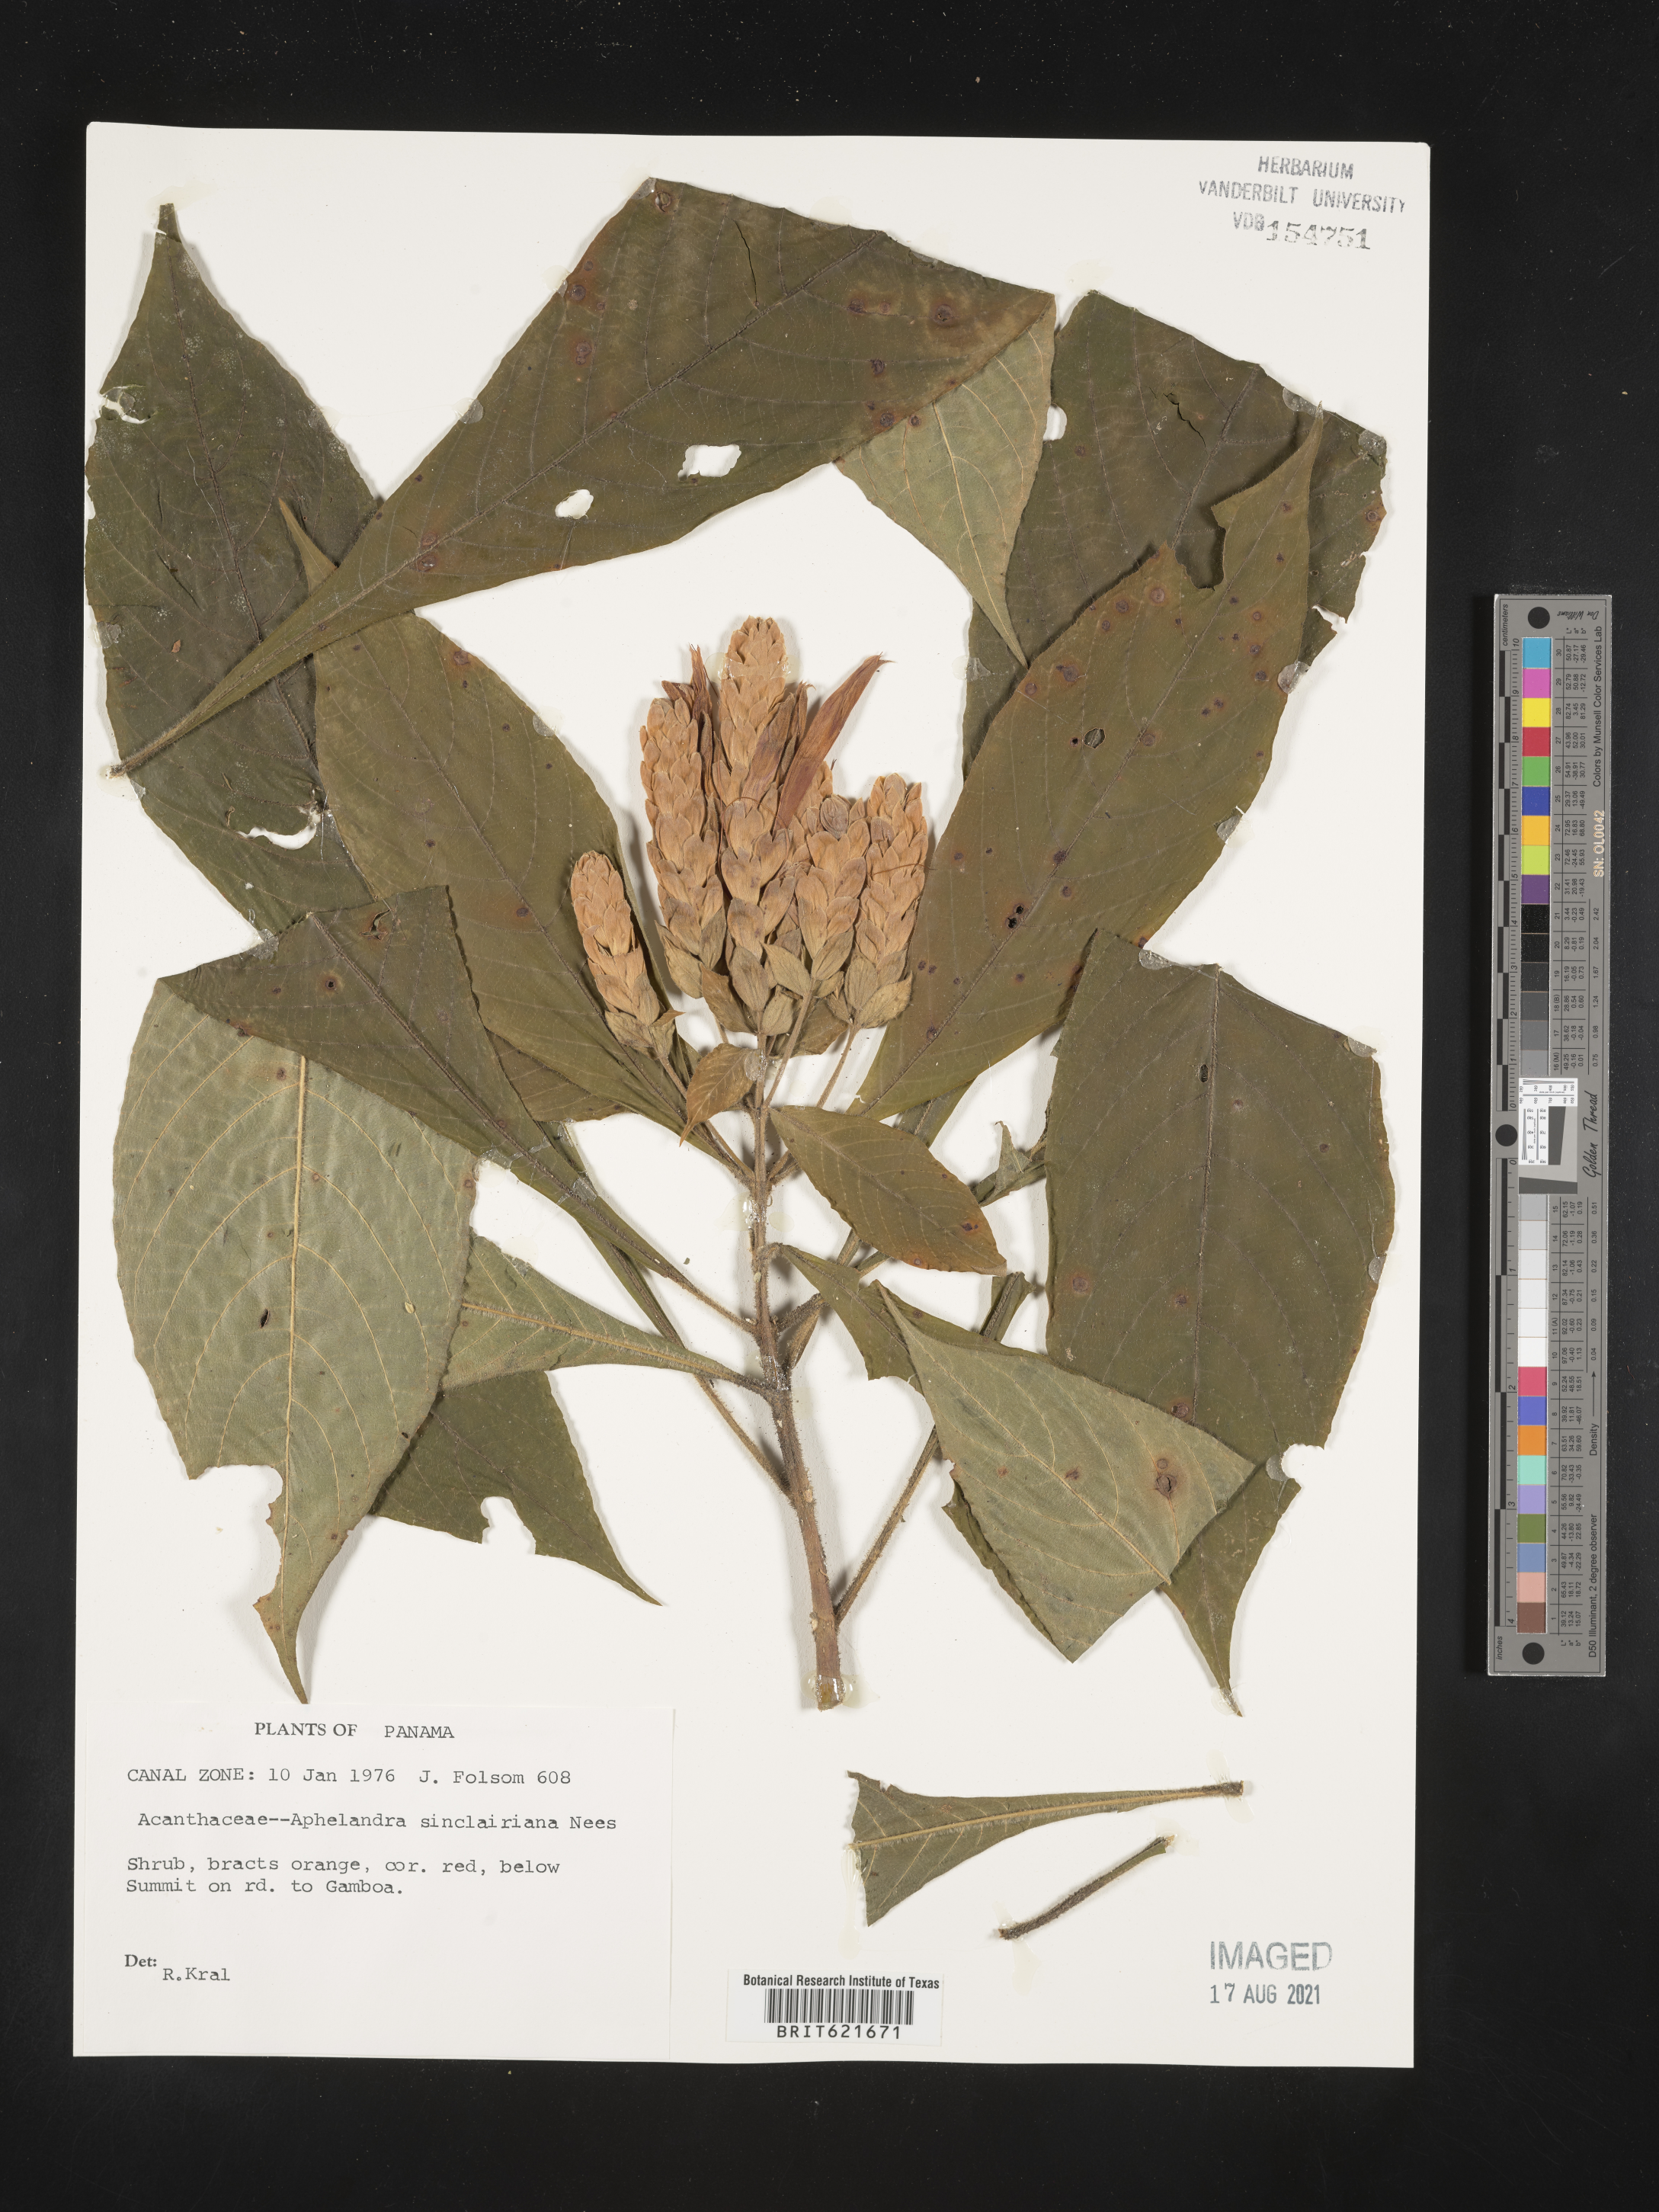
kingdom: Plantae
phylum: Tracheophyta
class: Magnoliopsida
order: Lamiales
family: Acanthaceae
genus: Aphelandra
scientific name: Aphelandra sinclairiana
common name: Coral aphelandra
